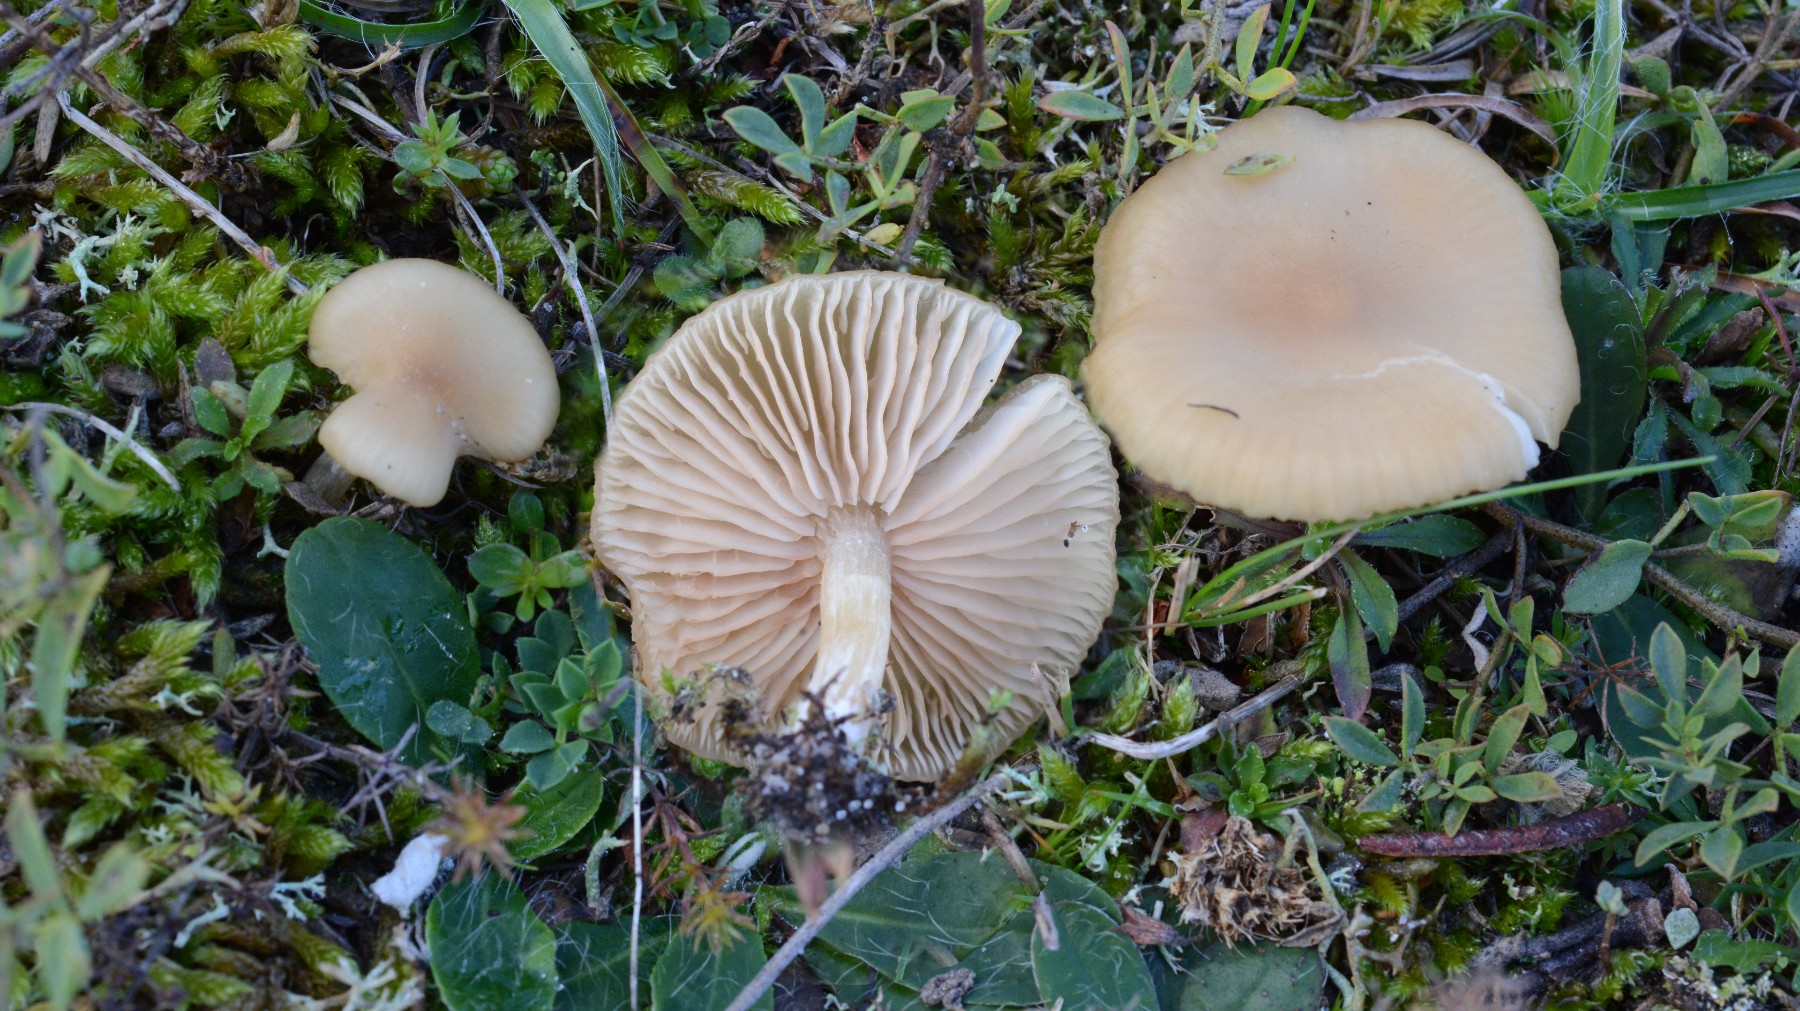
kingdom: Fungi
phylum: Basidiomycota
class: Agaricomycetes
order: Agaricales
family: Entolomataceae
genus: Entoloma
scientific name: Entoloma sericeum
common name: silkeglinsende rødblad
